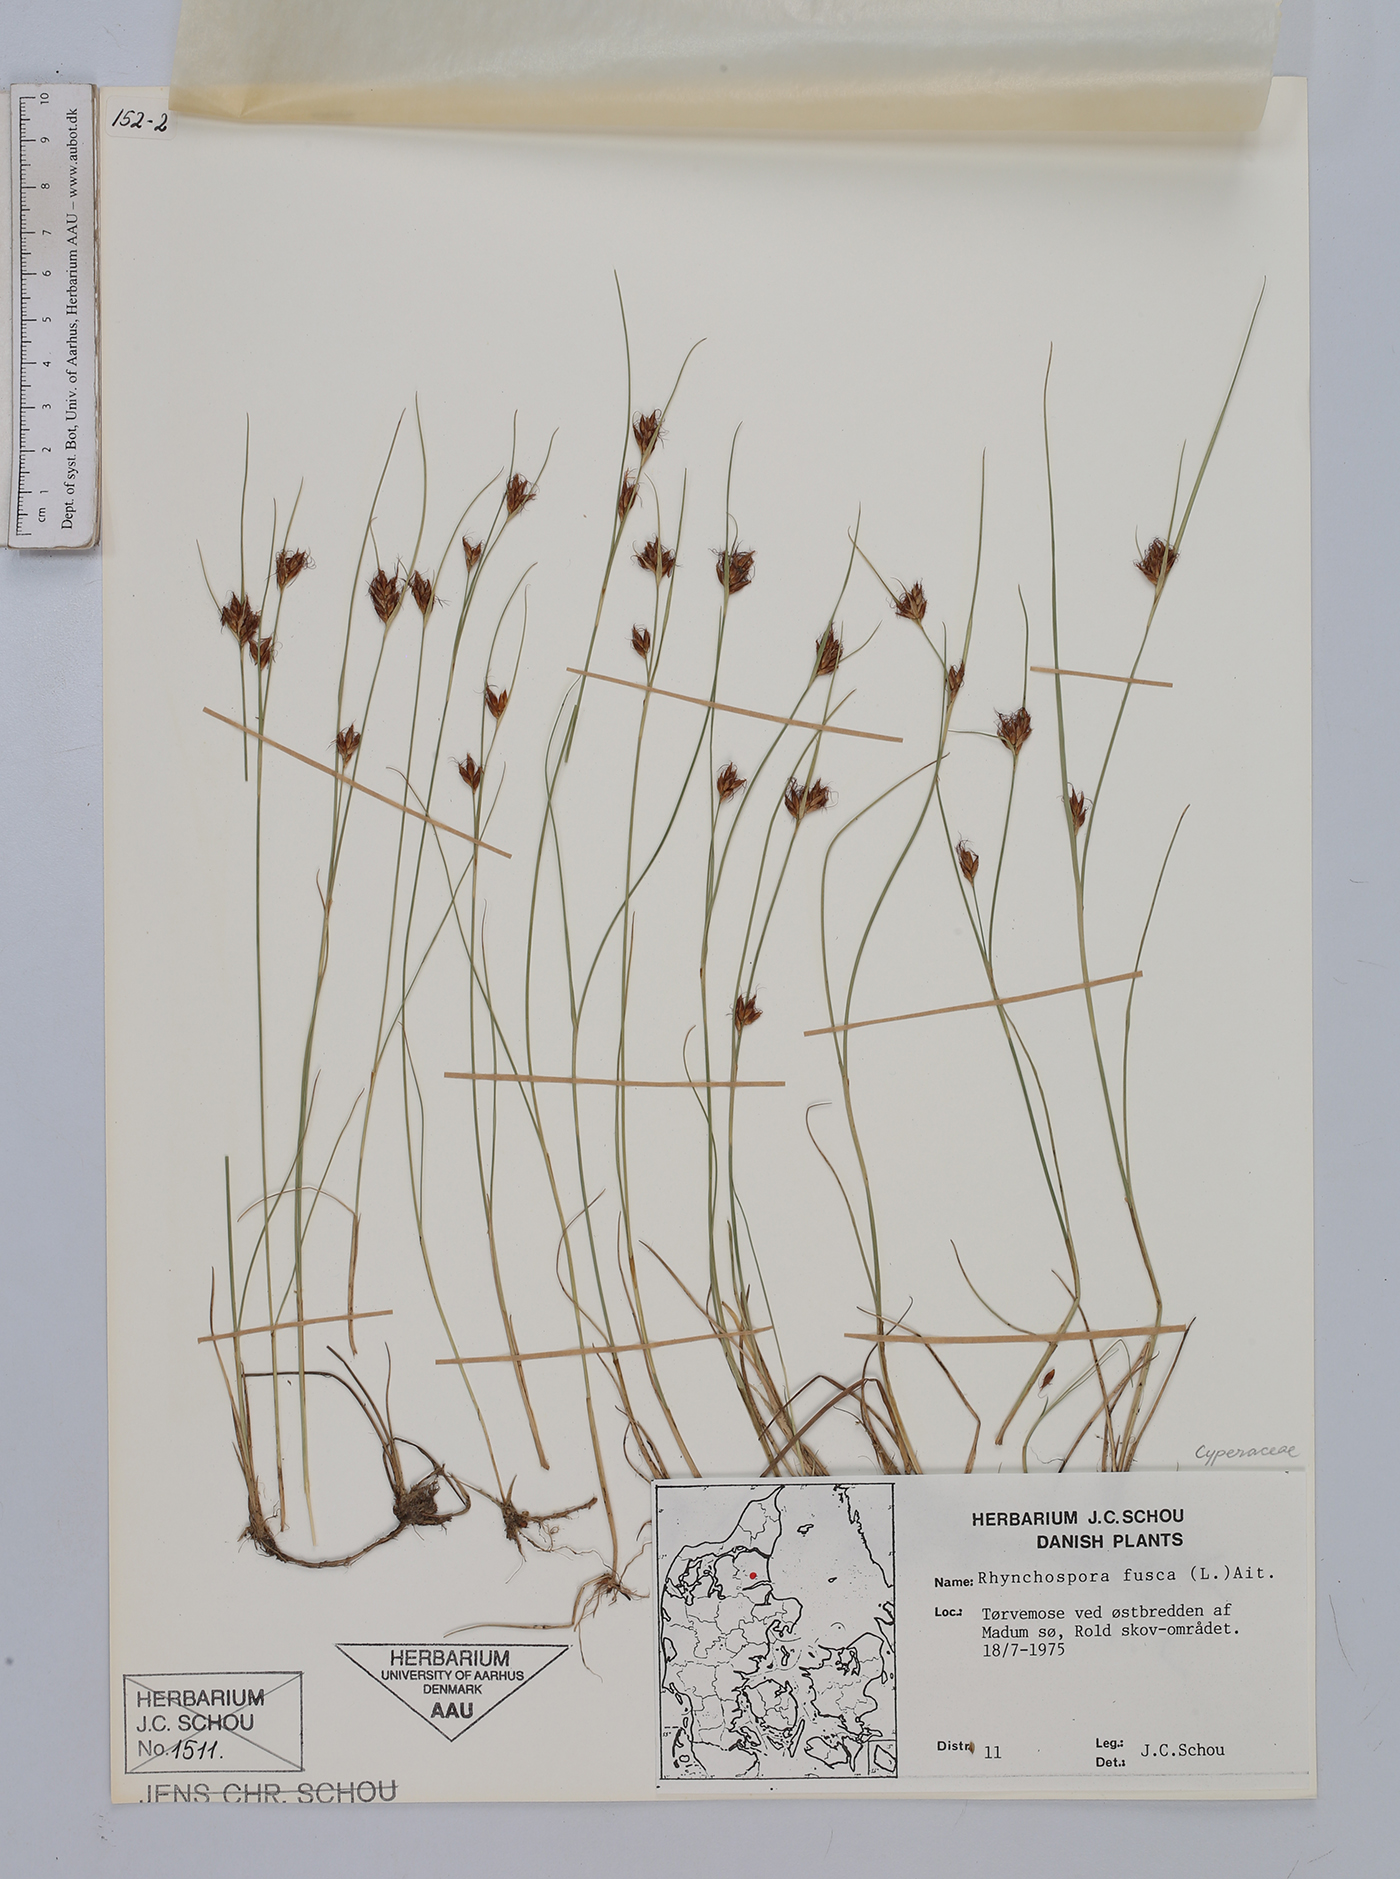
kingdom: Plantae
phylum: Tracheophyta
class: Liliopsida
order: Poales
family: Cyperaceae
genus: Rhynchospora
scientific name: Rhynchospora fusca
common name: Brown beak-sedge
